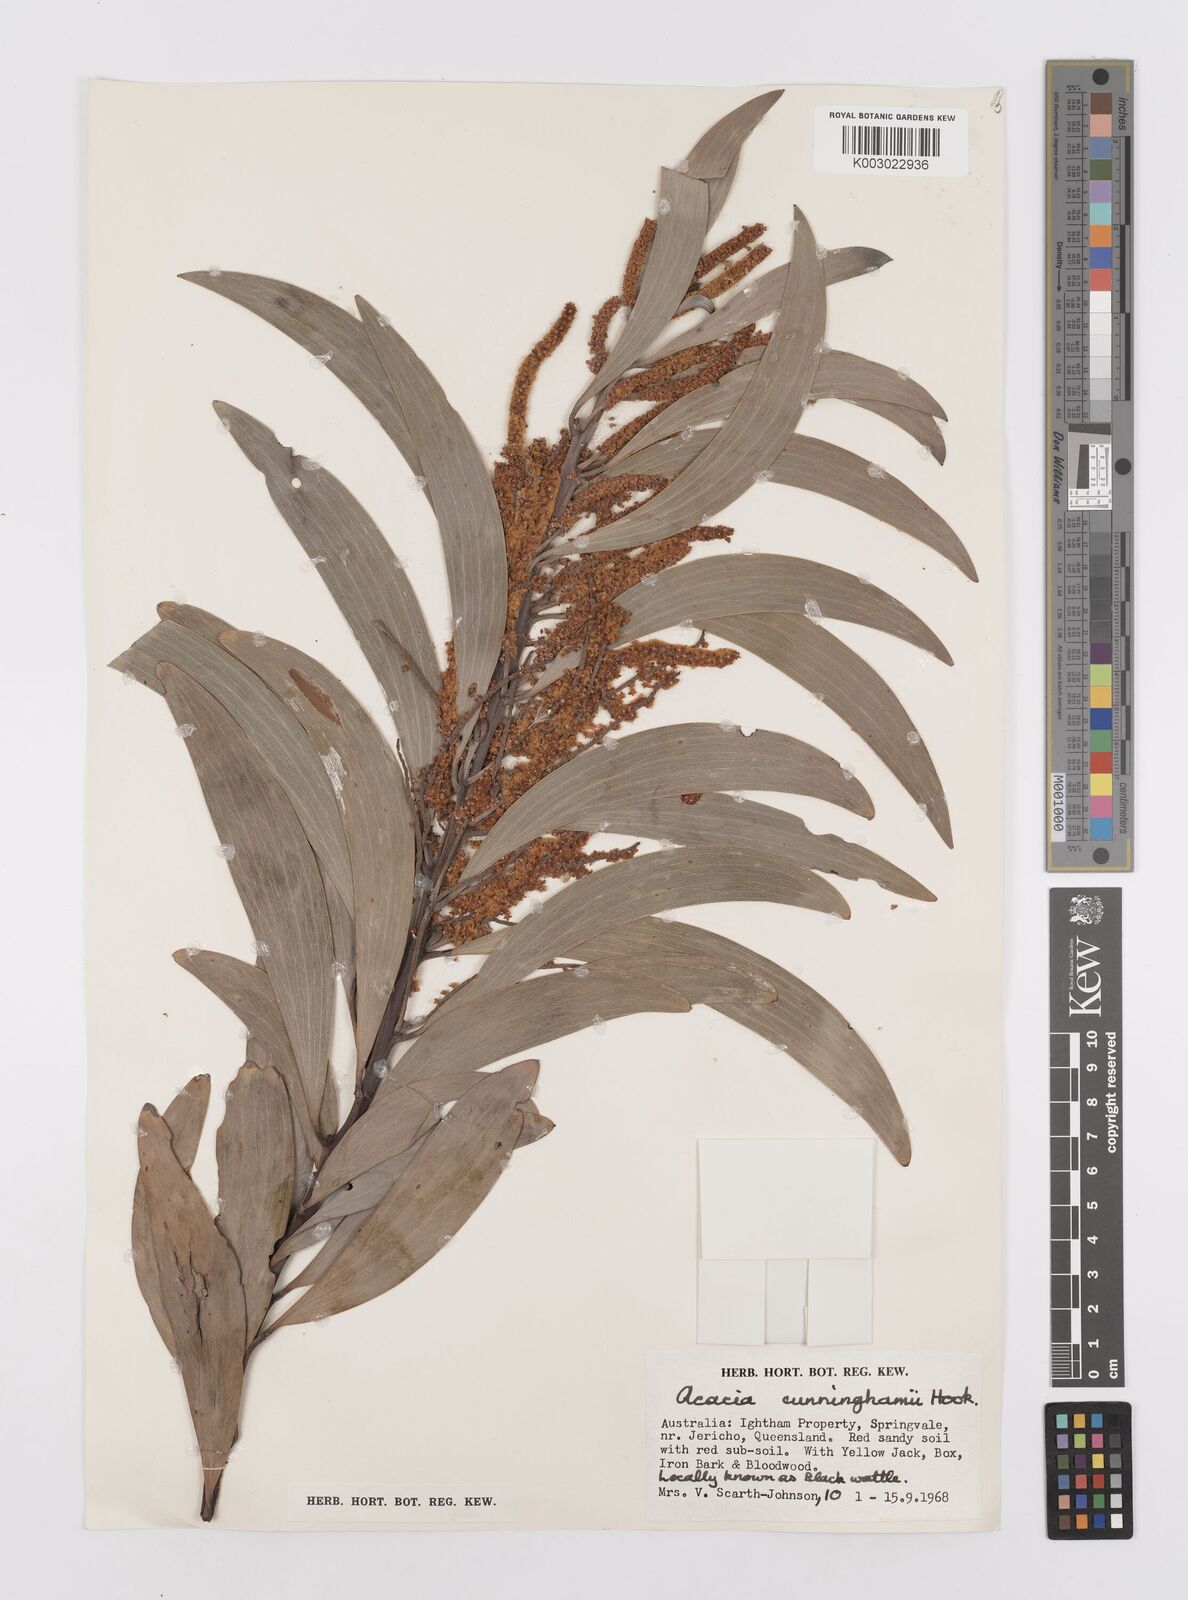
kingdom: Plantae
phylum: Tracheophyta
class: Magnoliopsida
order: Fabales
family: Fabaceae
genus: Acacia
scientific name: Acacia longispicata
